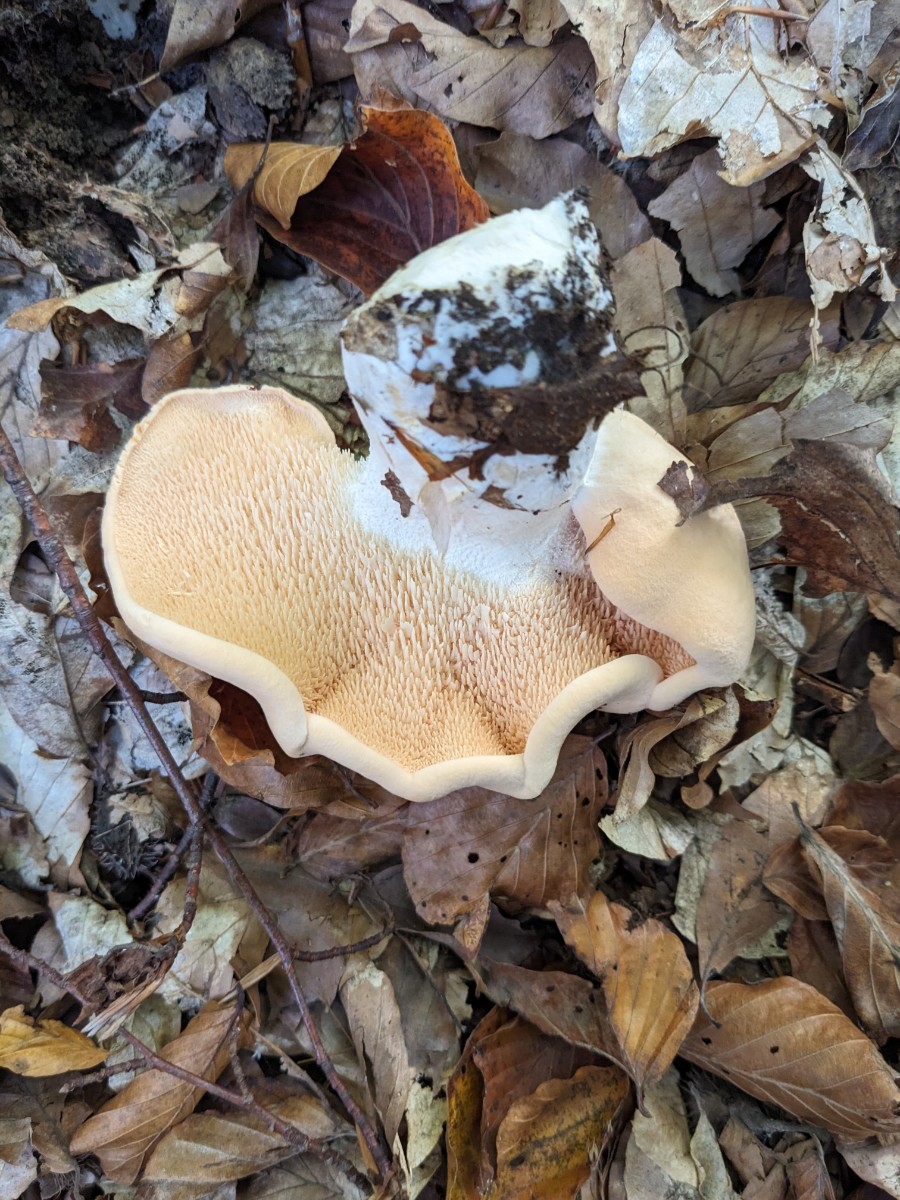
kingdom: Fungi
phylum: Basidiomycota
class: Agaricomycetes
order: Cantharellales
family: Hydnaceae
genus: Hydnum
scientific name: Hydnum repandum
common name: almindelig pigsvamp
